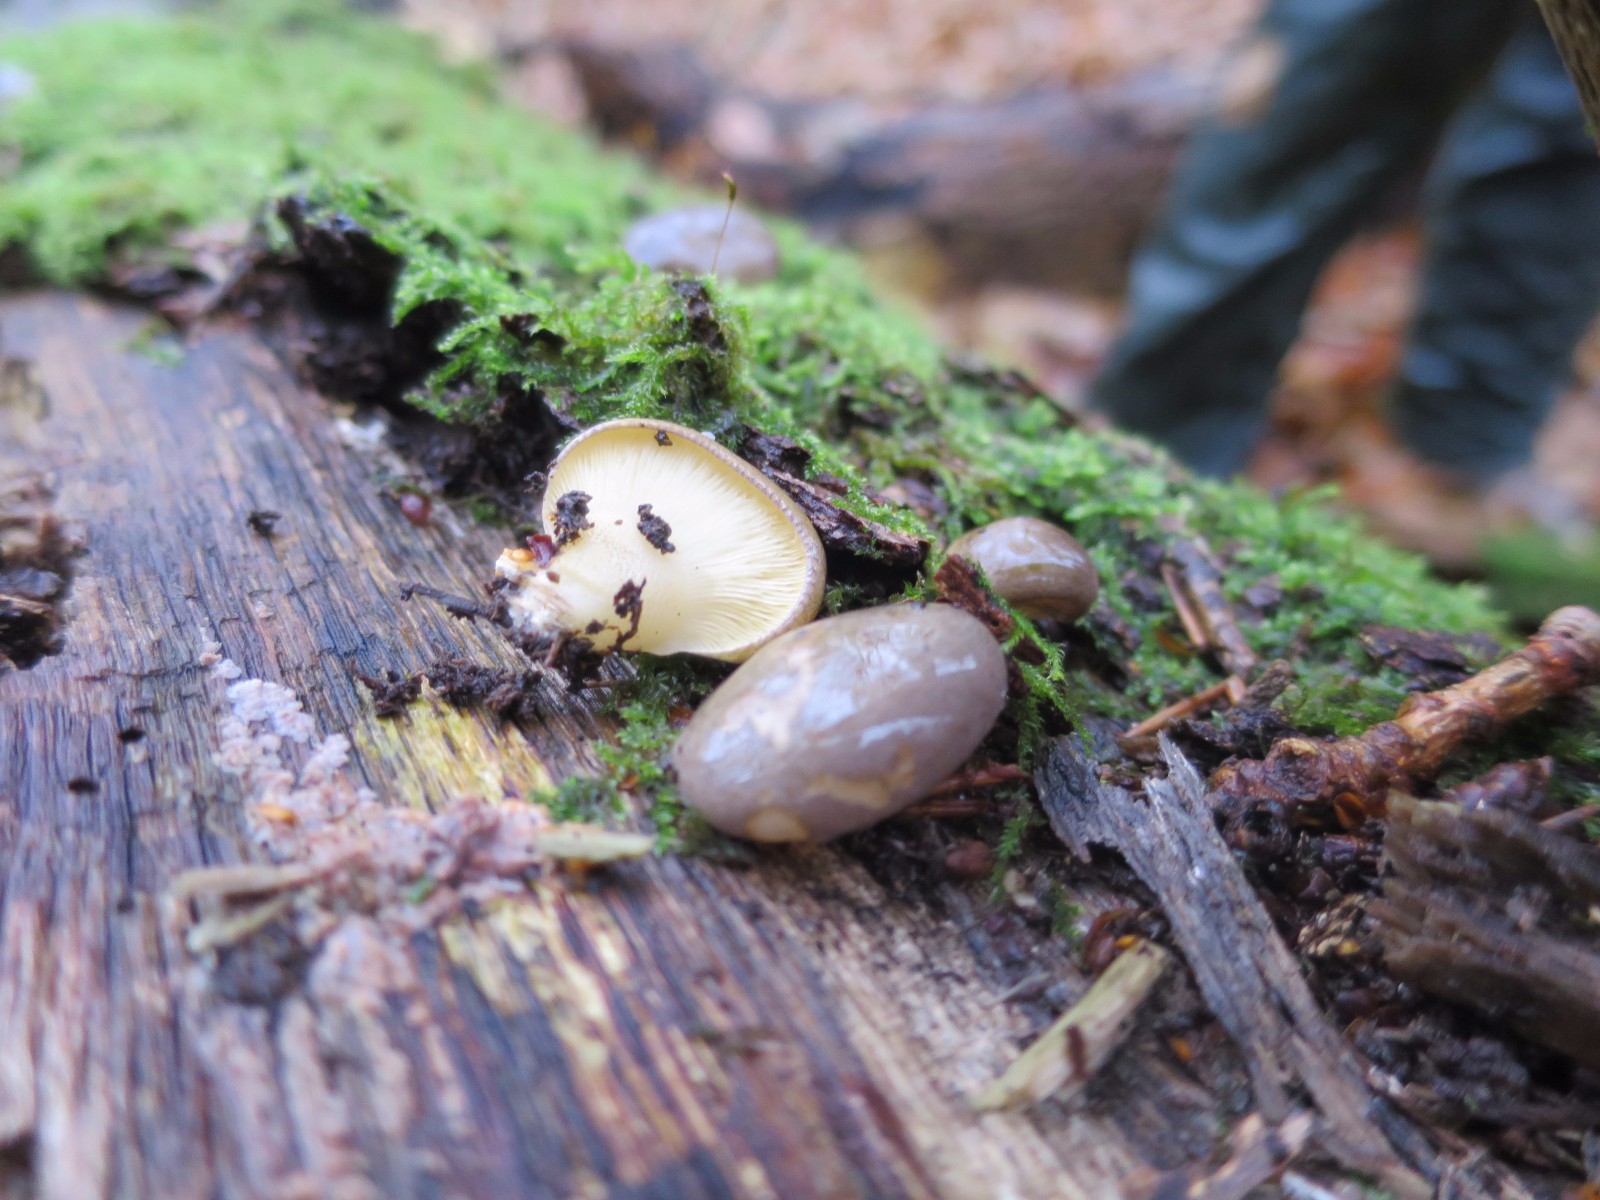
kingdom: Fungi
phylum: Basidiomycota
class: Agaricomycetes
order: Agaricales
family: Sarcomyxaceae
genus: Sarcomyxa
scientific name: Sarcomyxa serotina
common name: gummihat
